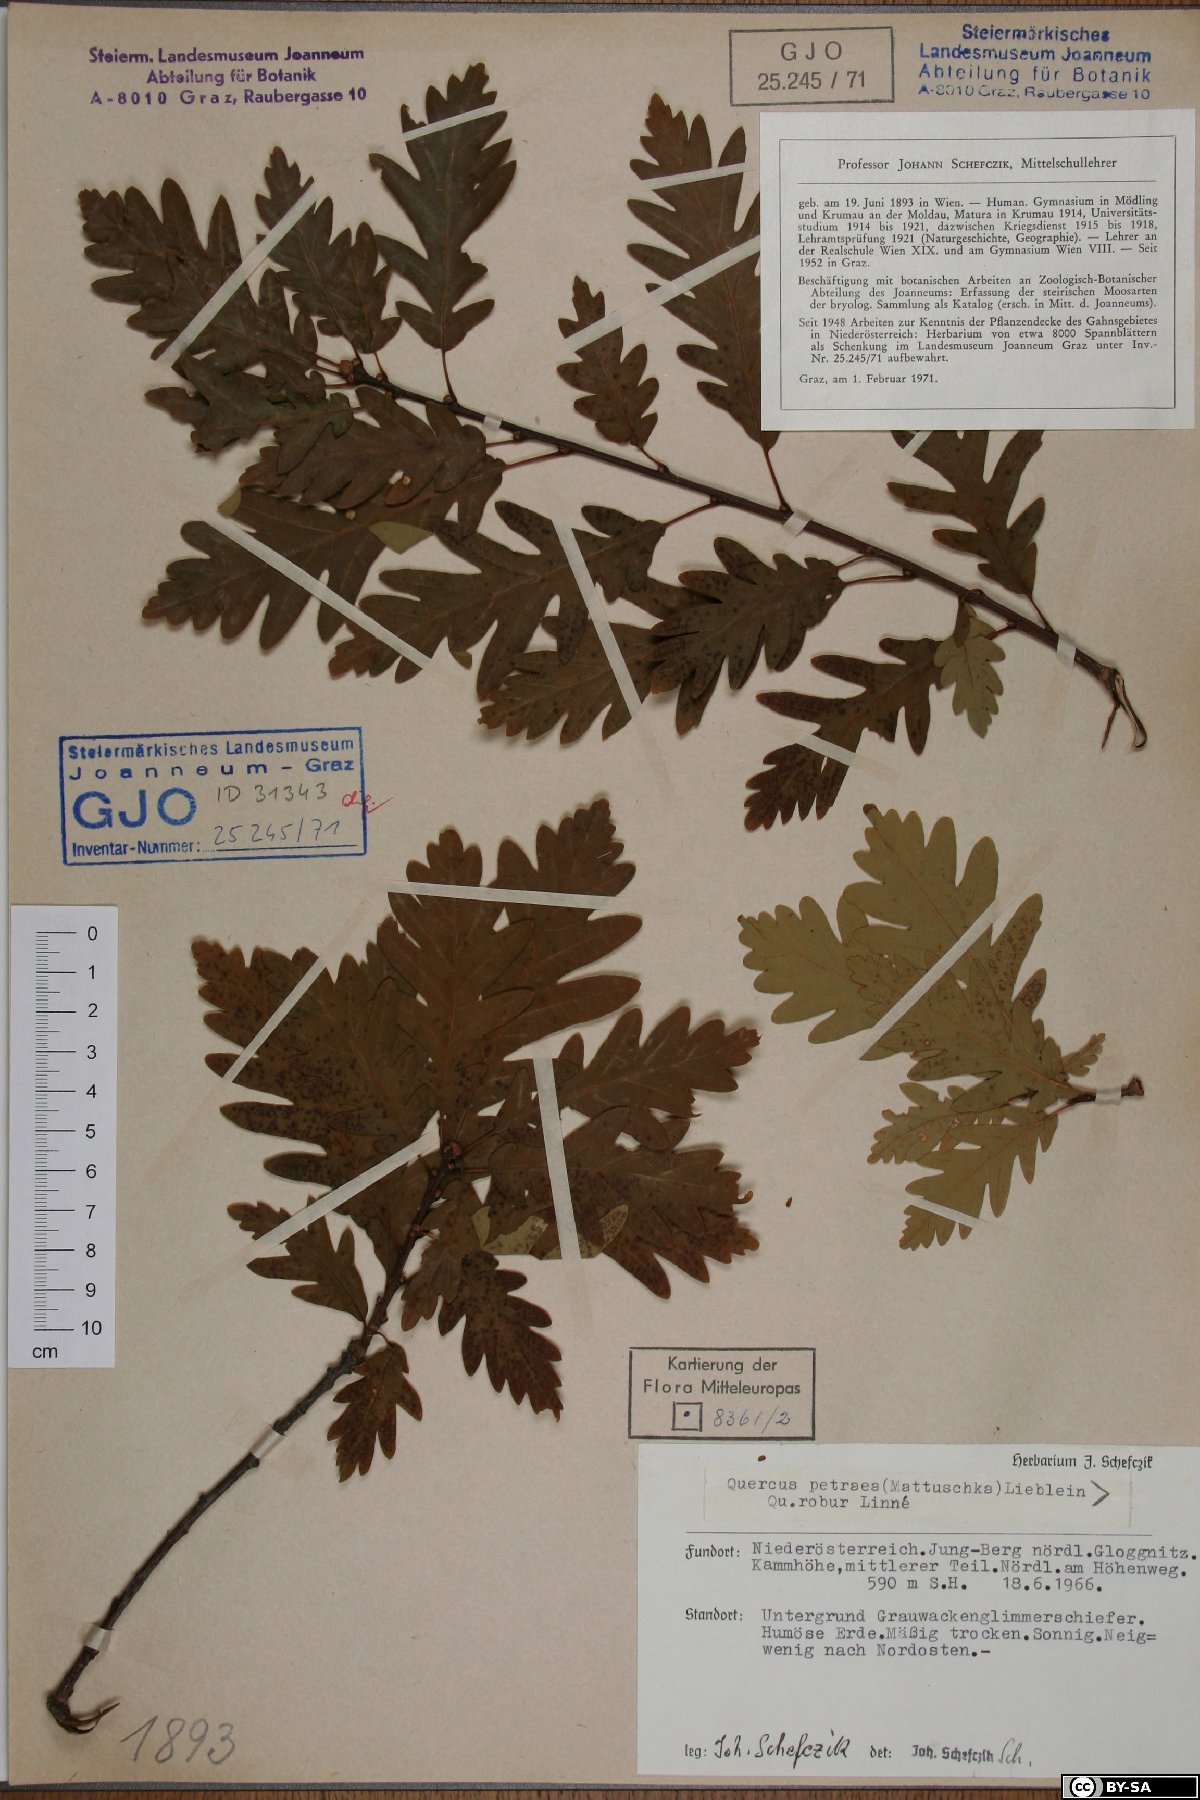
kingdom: Plantae
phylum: Tracheophyta
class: Magnoliopsida
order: Fagales
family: Fagaceae
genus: Quercus
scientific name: Quercus petraea
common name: Sessile oak
